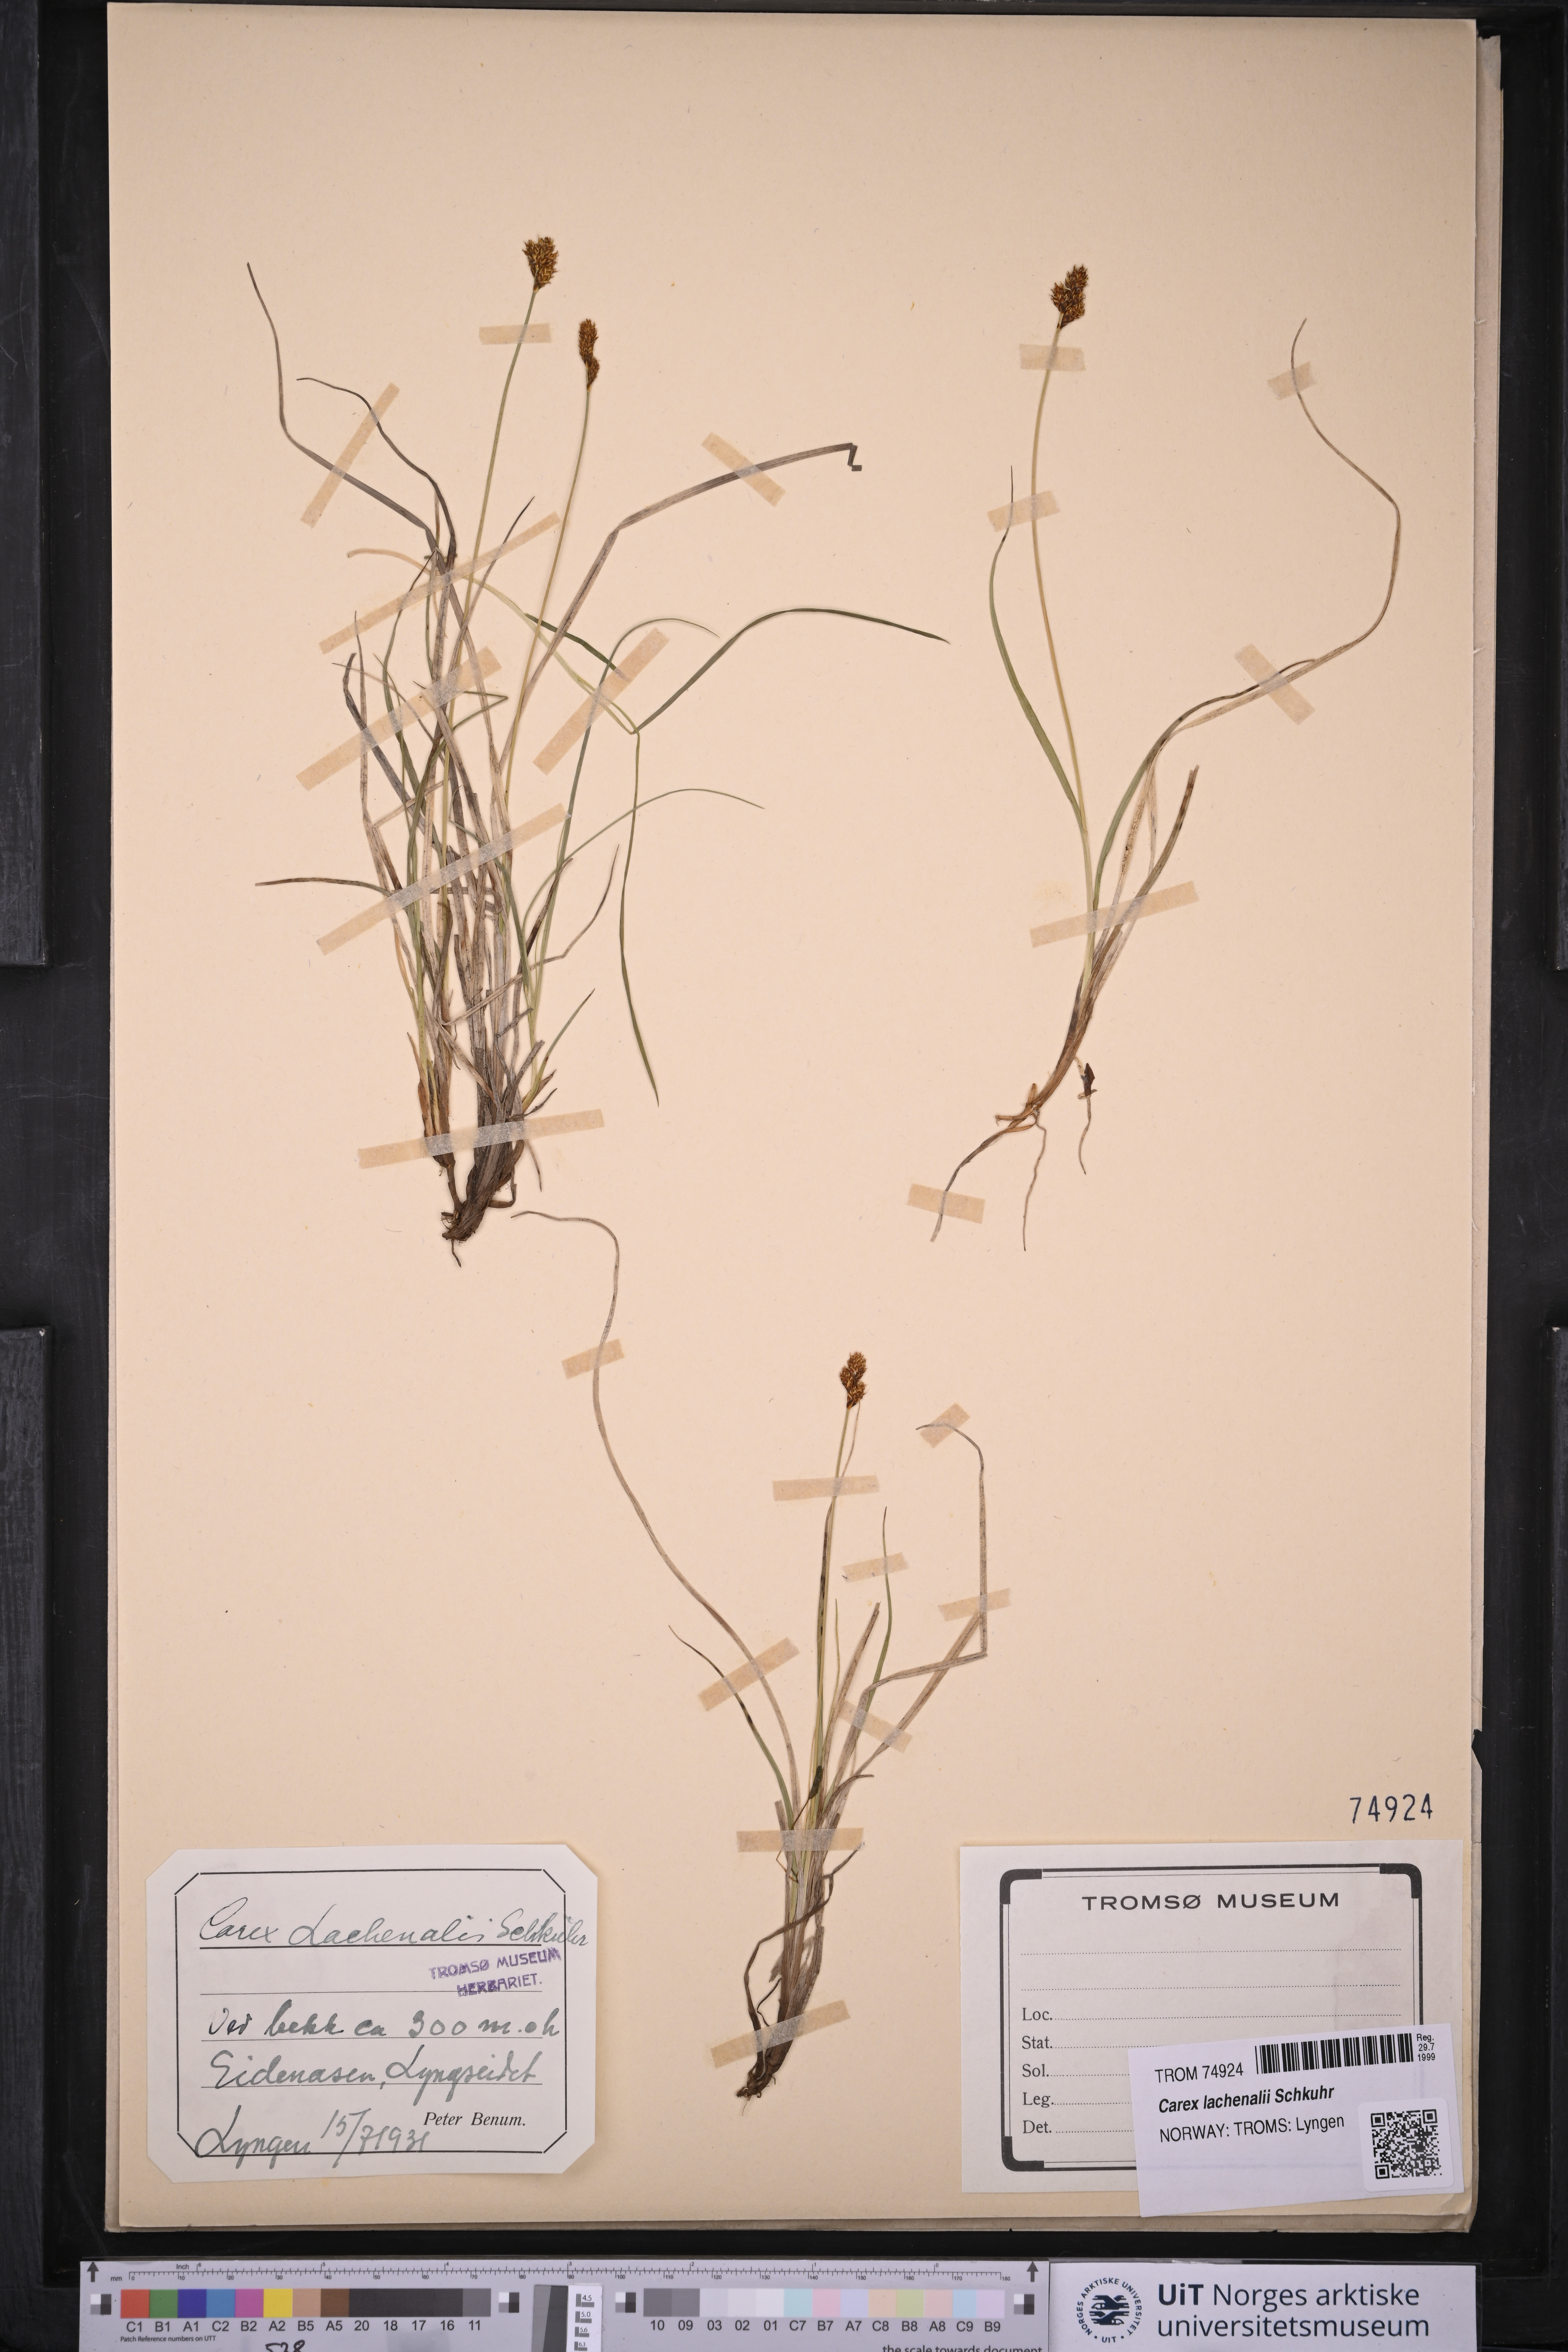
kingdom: Plantae
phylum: Tracheophyta
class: Liliopsida
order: Poales
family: Cyperaceae
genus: Carex
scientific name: Carex lachenalii
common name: Hare's-foot sedge
